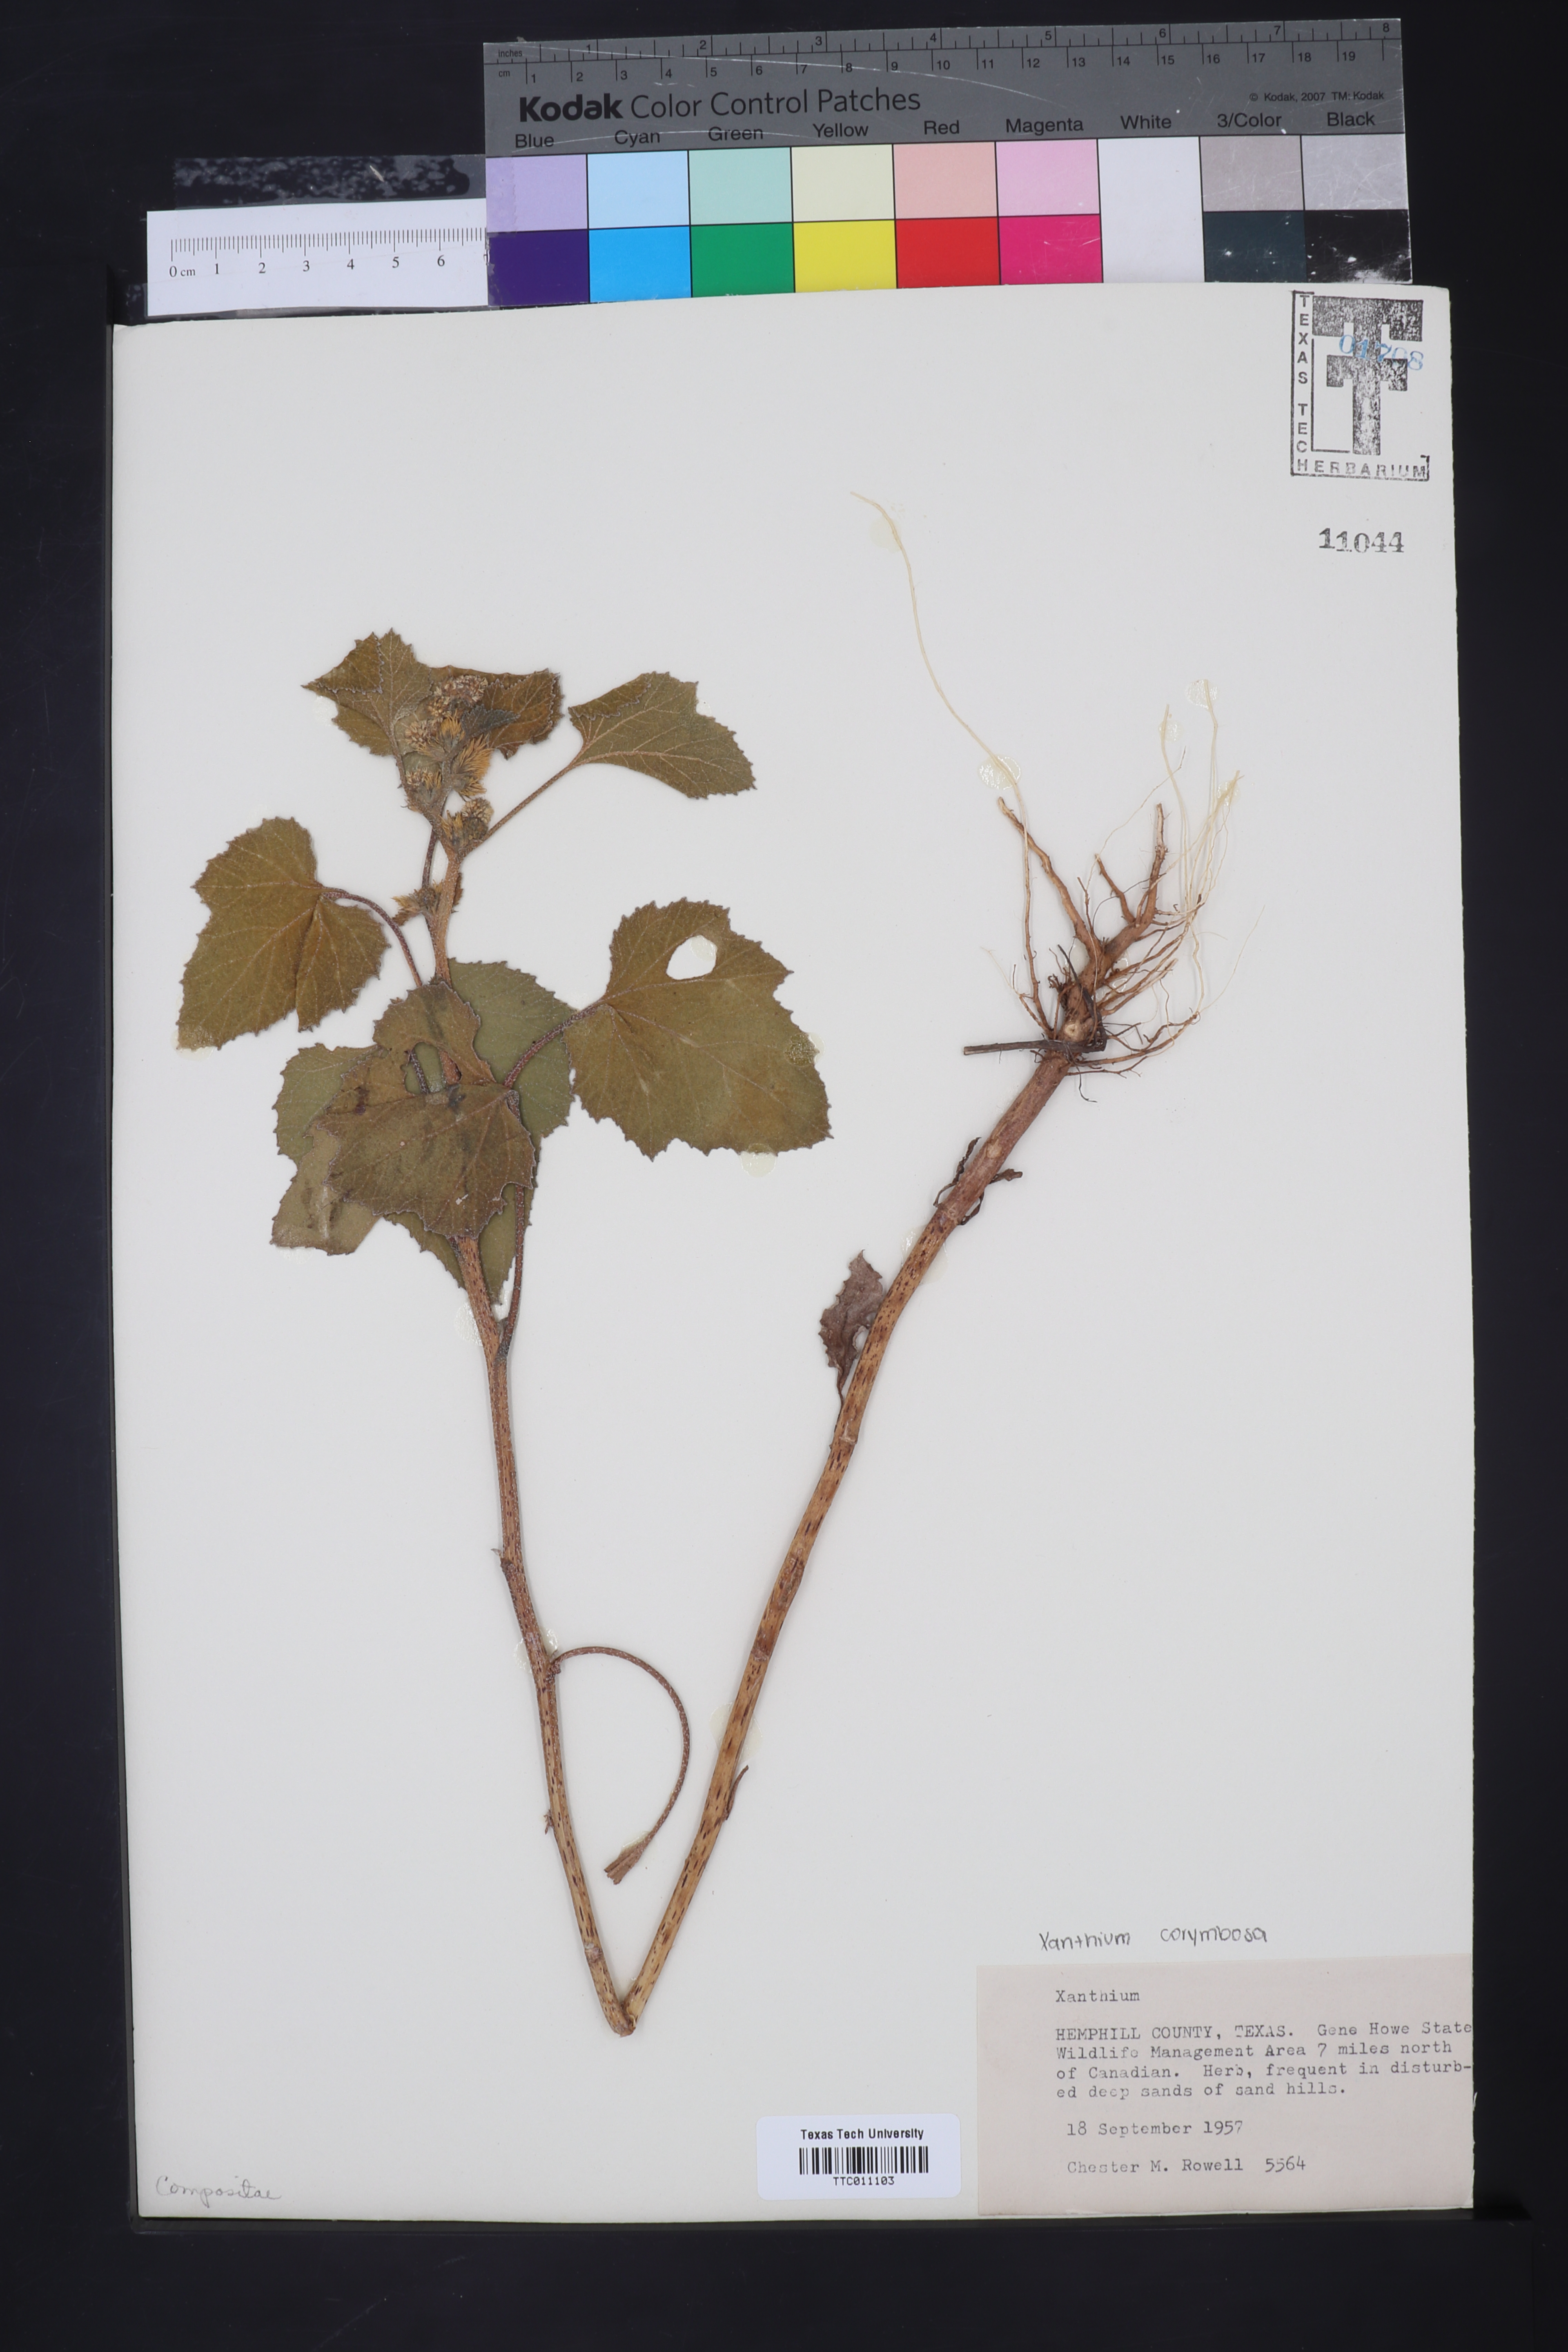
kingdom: Plantae
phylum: Tracheophyta
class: Magnoliopsida
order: Asterales
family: Asteraceae
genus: Xanthium
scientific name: Xanthium
